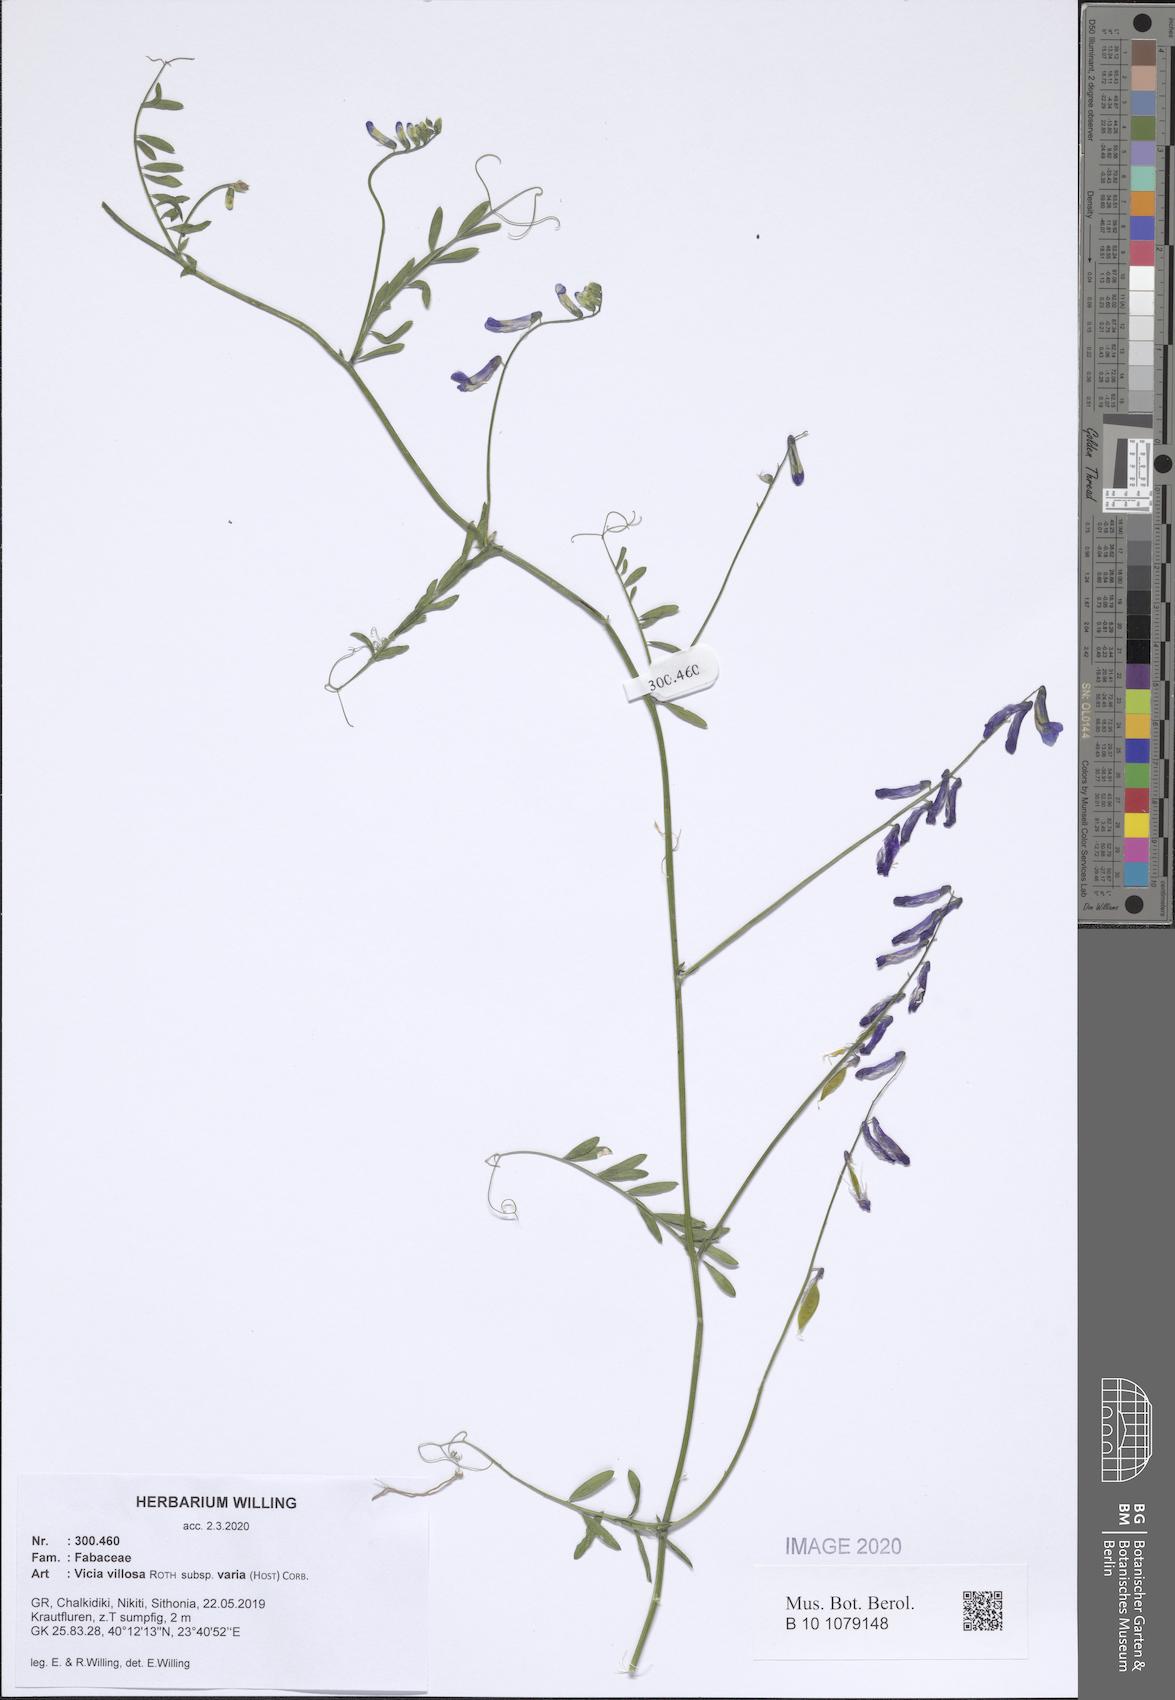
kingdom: Plantae
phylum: Tracheophyta
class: Magnoliopsida
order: Fabales
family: Fabaceae
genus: Vicia
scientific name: Vicia villosa
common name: Fodder vetch
